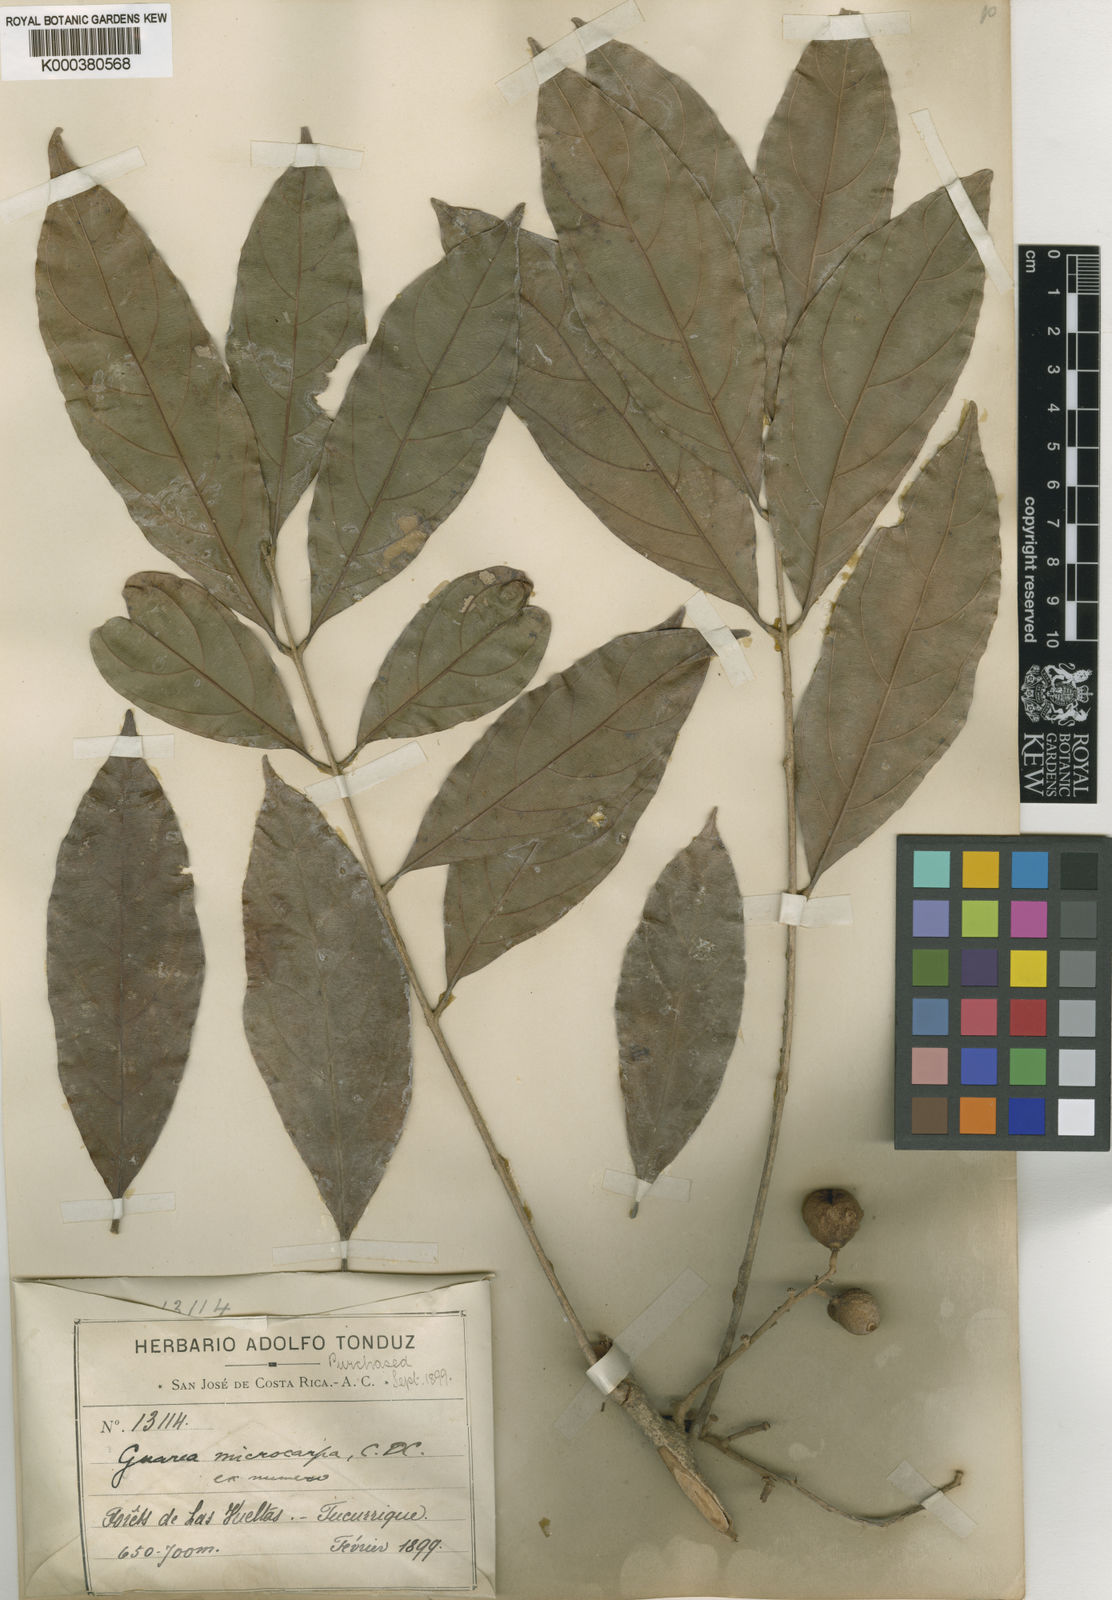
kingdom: Plantae
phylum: Tracheophyta
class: Magnoliopsida
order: Sapindales
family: Meliaceae
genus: Guarea
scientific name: Guarea glabra
